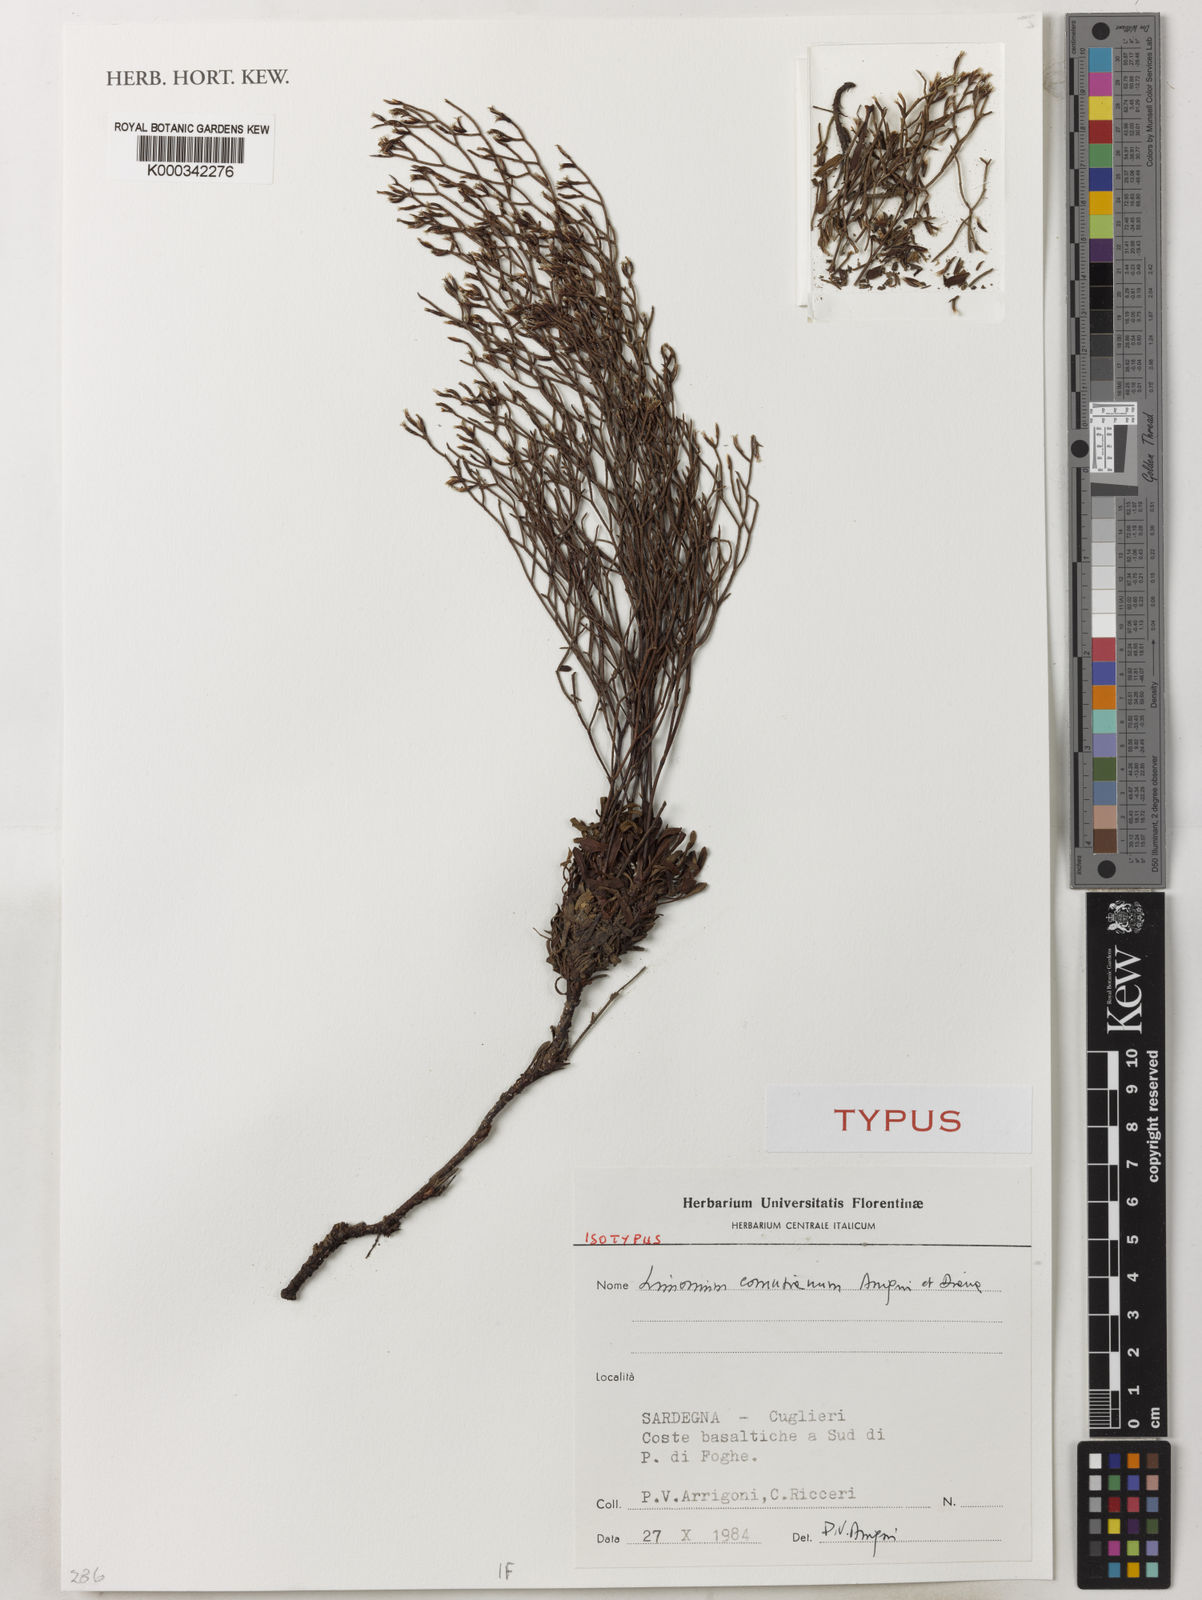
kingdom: Plantae
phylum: Tracheophyta
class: Magnoliopsida
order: Caryophyllales
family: Plumbaginaceae
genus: Limonium
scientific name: Limonium acutifolium
